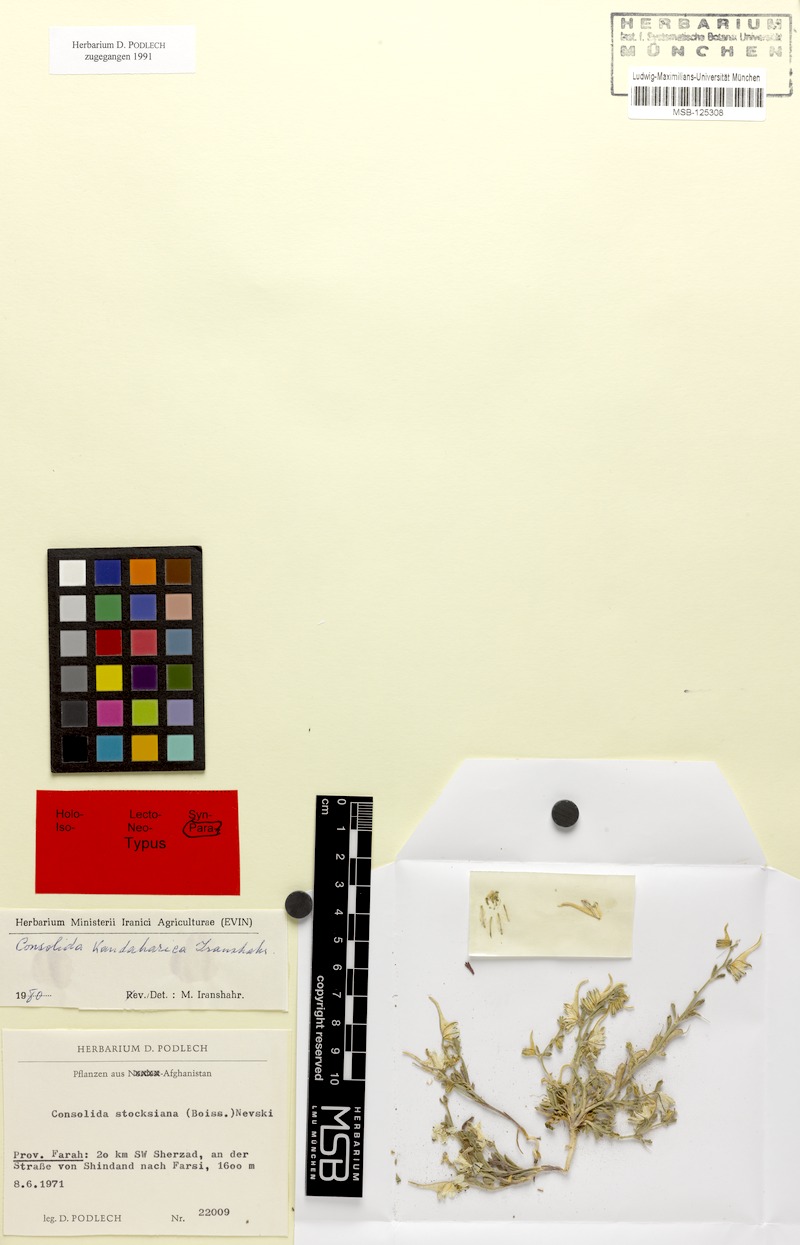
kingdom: Plantae
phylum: Tracheophyta
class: Magnoliopsida
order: Ranunculales
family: Ranunculaceae
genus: Delphinium
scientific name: Delphinium kandaharicum
